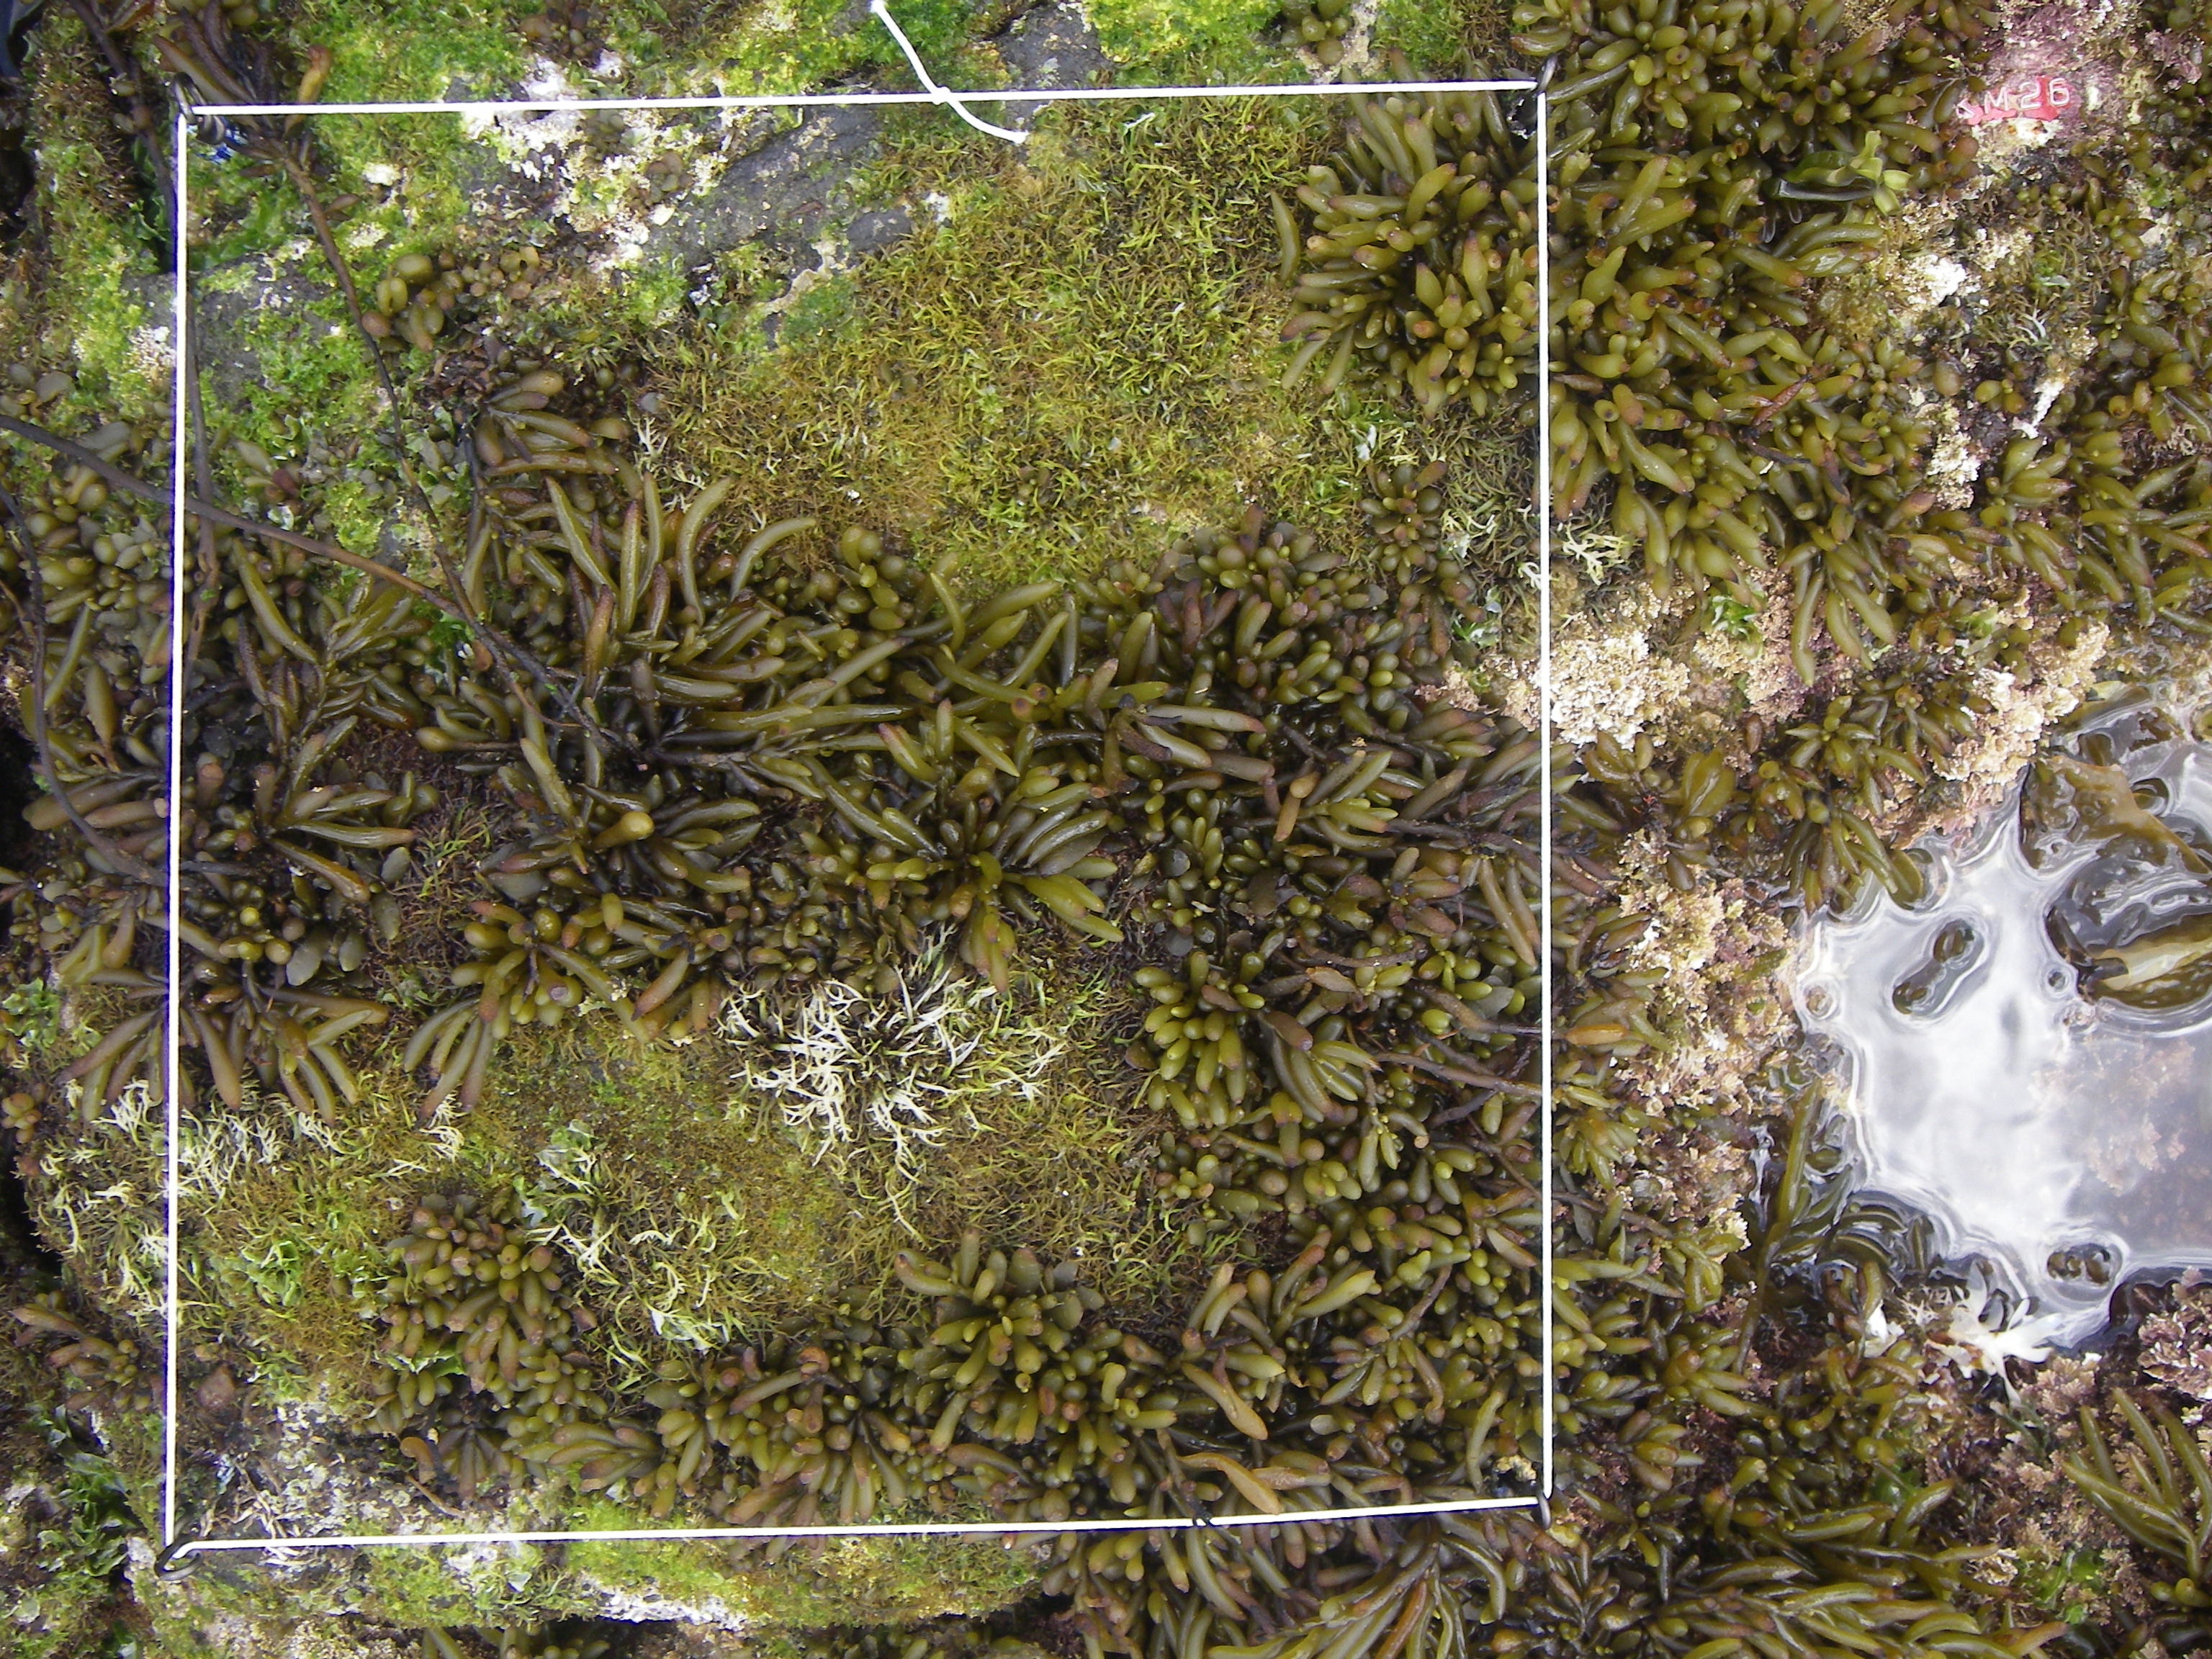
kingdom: Chromista
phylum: Ochrophyta
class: Phaeophyceae
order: Fucales
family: Sargassaceae
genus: Sargassum
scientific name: Sargassum fusiforme
